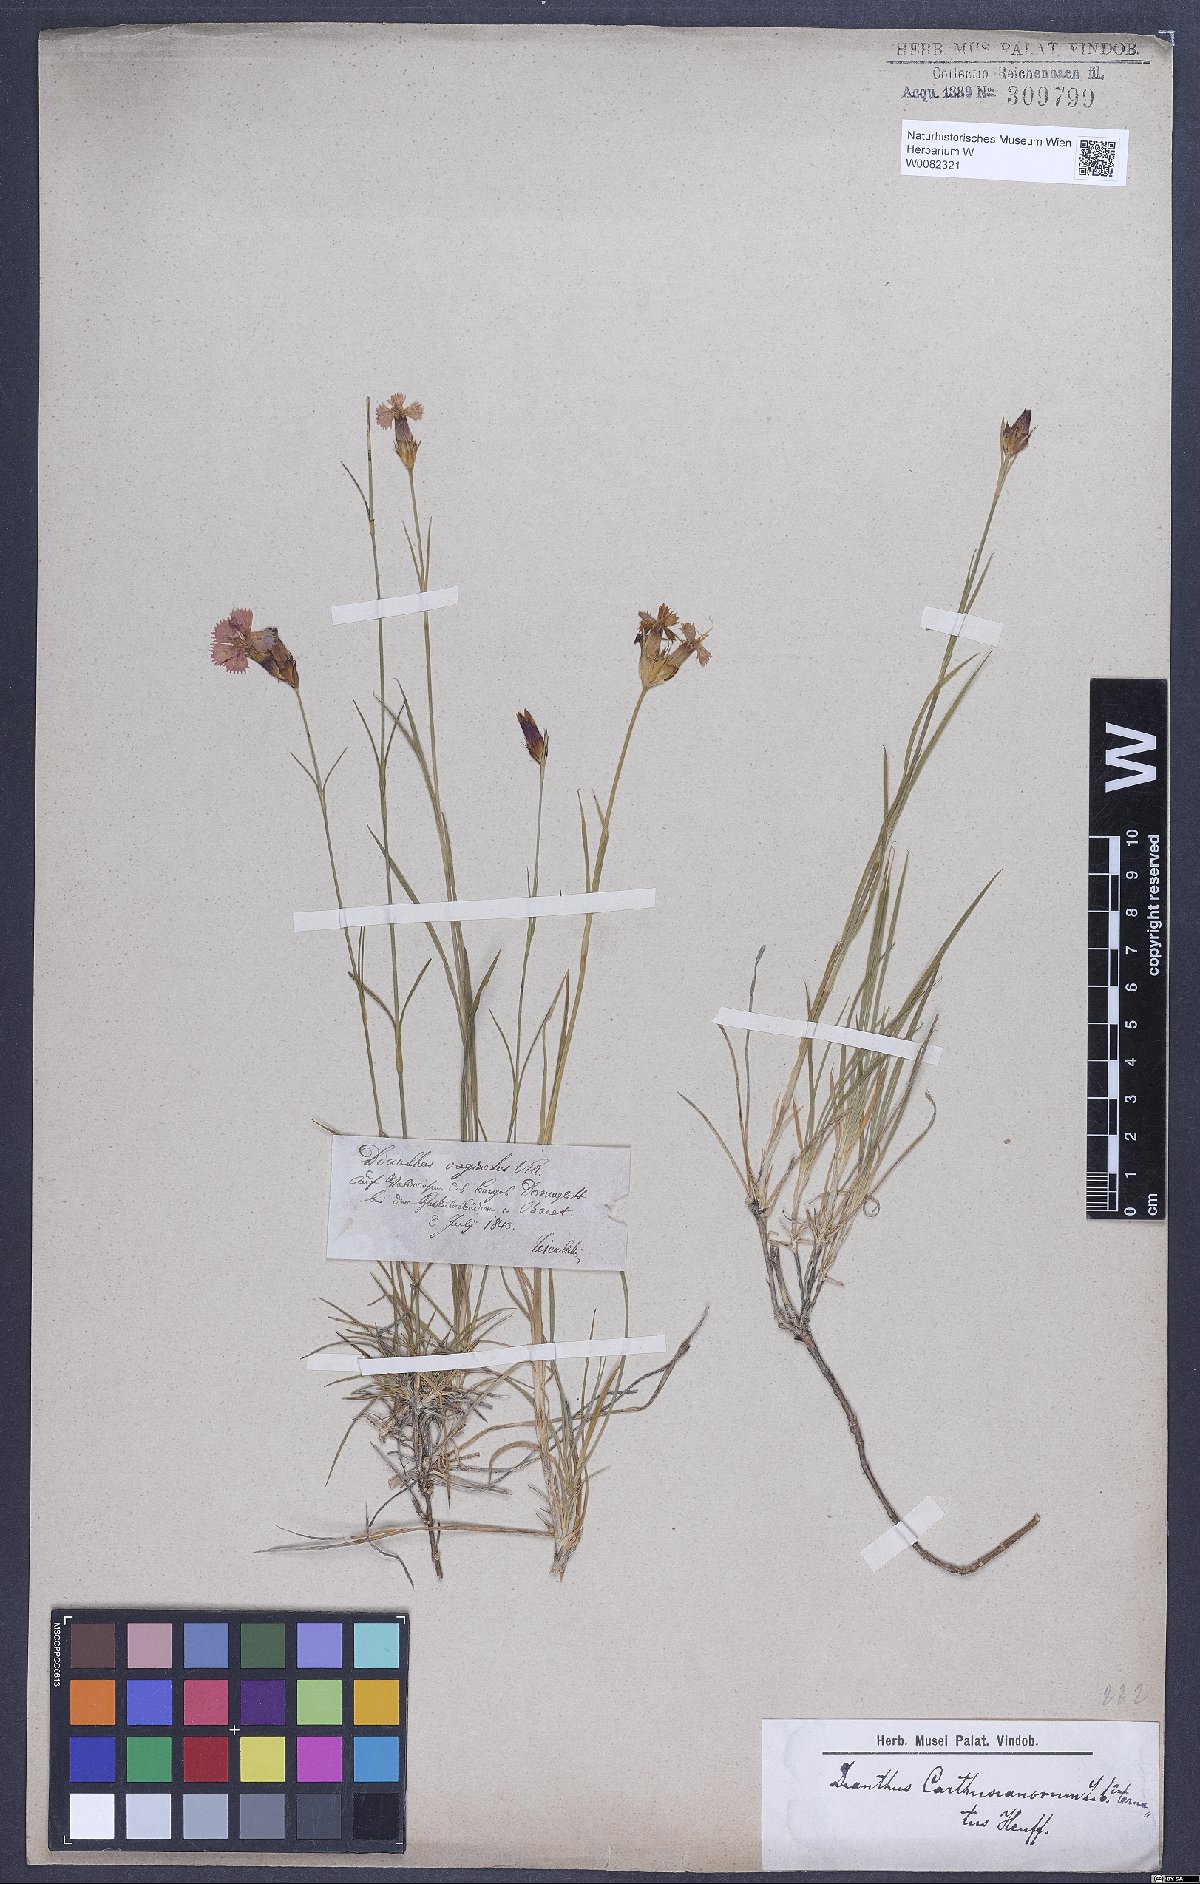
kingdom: Plantae
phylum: Tracheophyta
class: Magnoliopsida
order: Caryophyllales
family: Caryophyllaceae
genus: Dianthus
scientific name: Dianthus carthusianorum
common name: Carthusian pink
